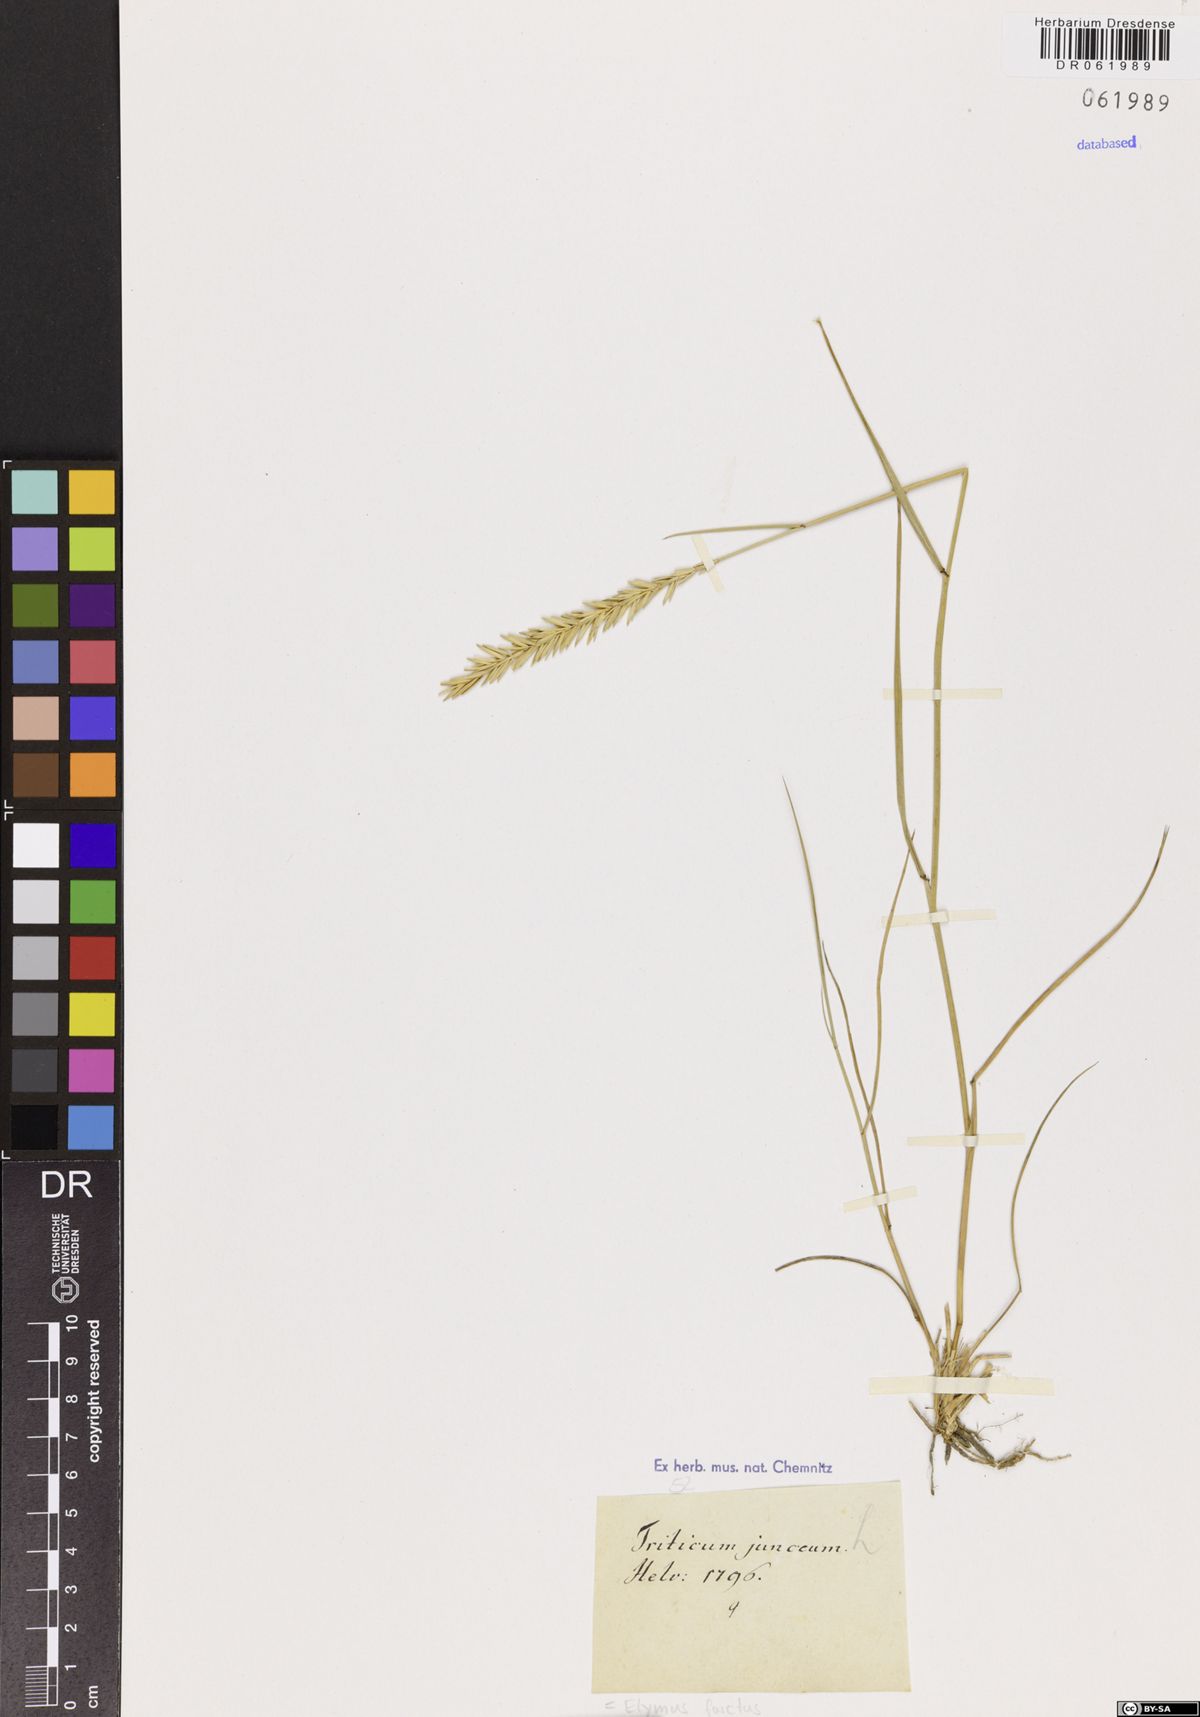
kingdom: Plantae
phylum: Tracheophyta
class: Liliopsida
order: Poales
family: Poaceae
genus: Thinopyrum
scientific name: Thinopyrum junceum
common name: Russian wheatgrass
